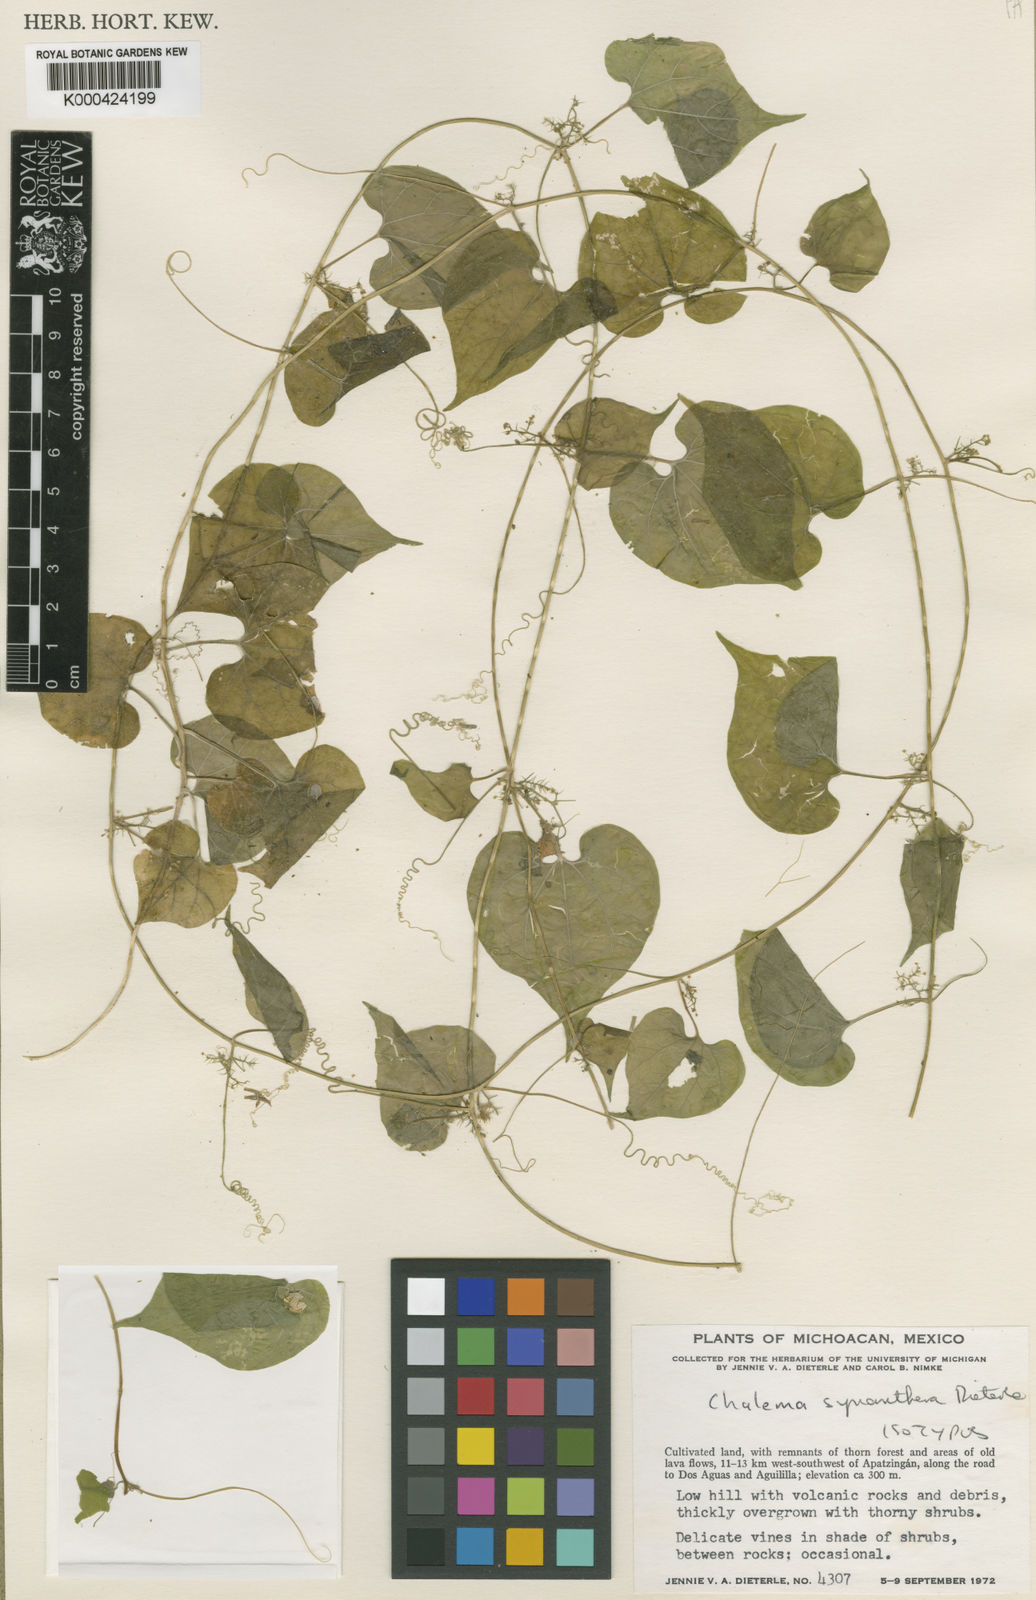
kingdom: Plantae
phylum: Tracheophyta
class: Magnoliopsida
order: Cucurbitales
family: Cucurbitaceae
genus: Sicydium
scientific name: Sicydium synantherum
